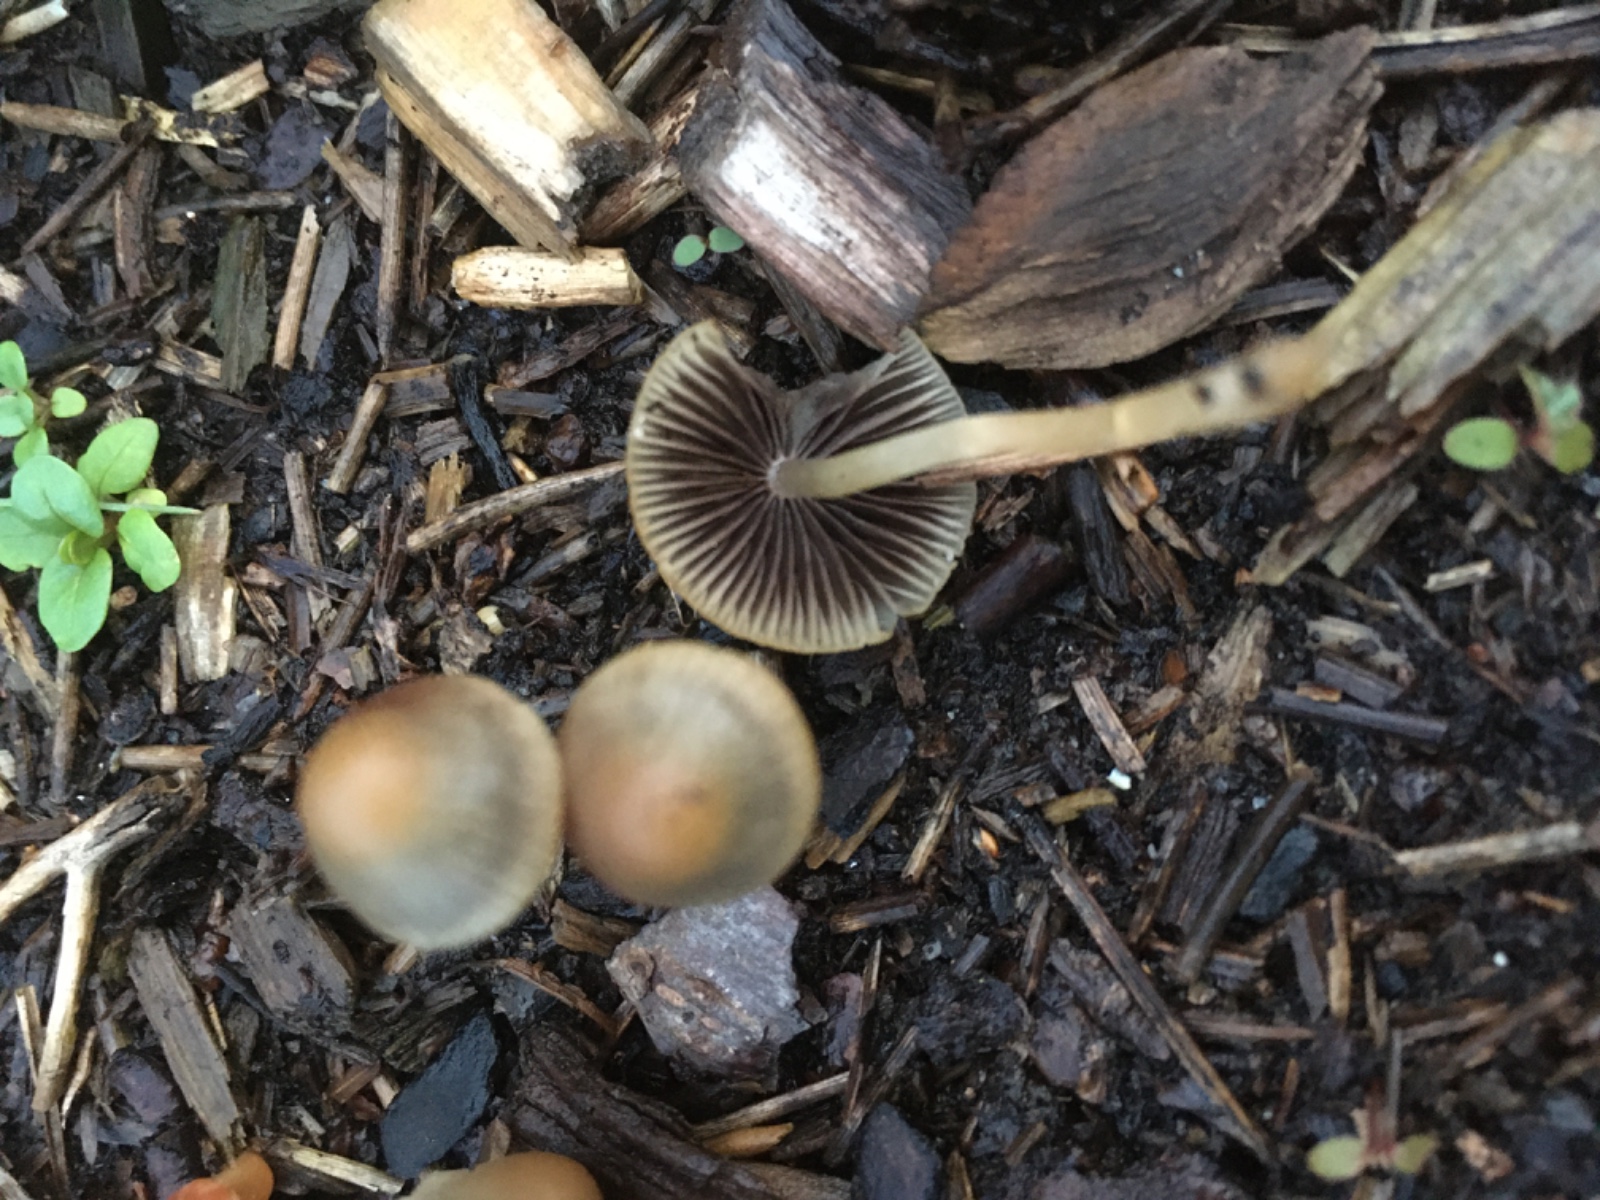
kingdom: Fungi
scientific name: Fungi
